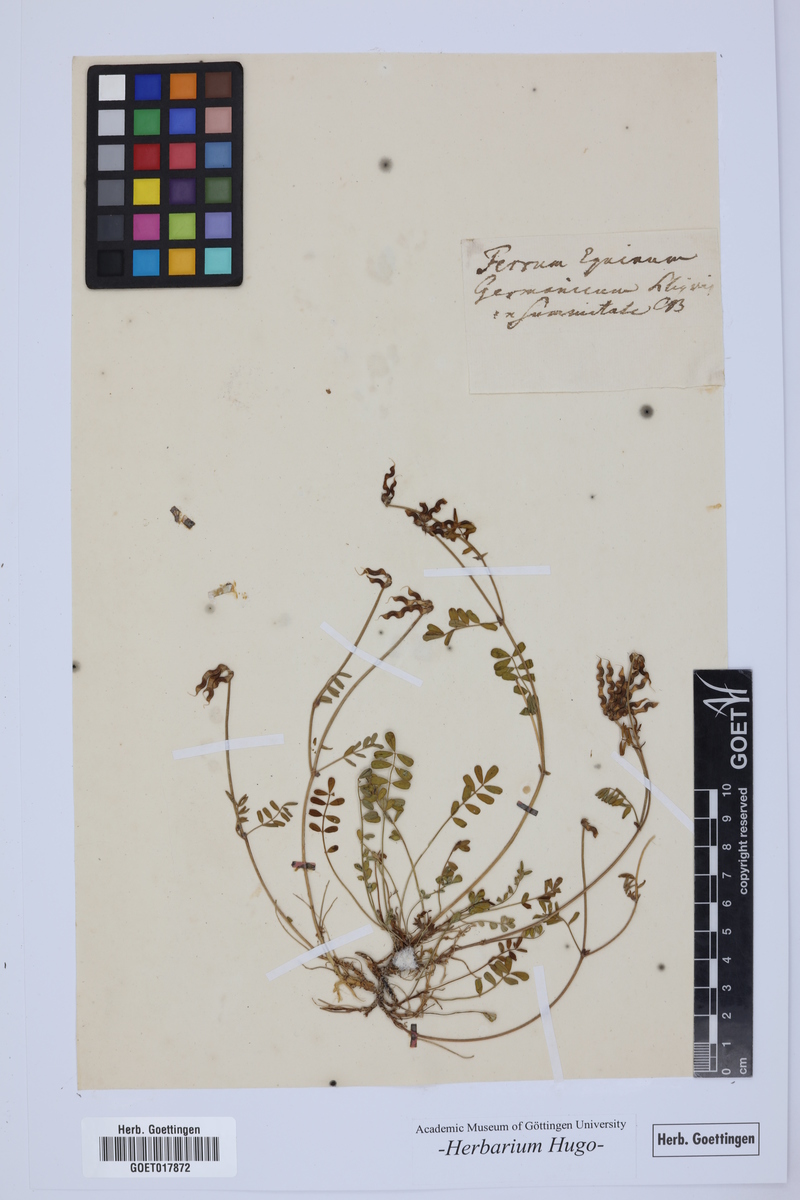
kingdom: Plantae
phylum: Tracheophyta
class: Magnoliopsida
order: Fabales
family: Fabaceae
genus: Hippocrepis
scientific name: Hippocrepis comosa
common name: Horseshoe vetch
